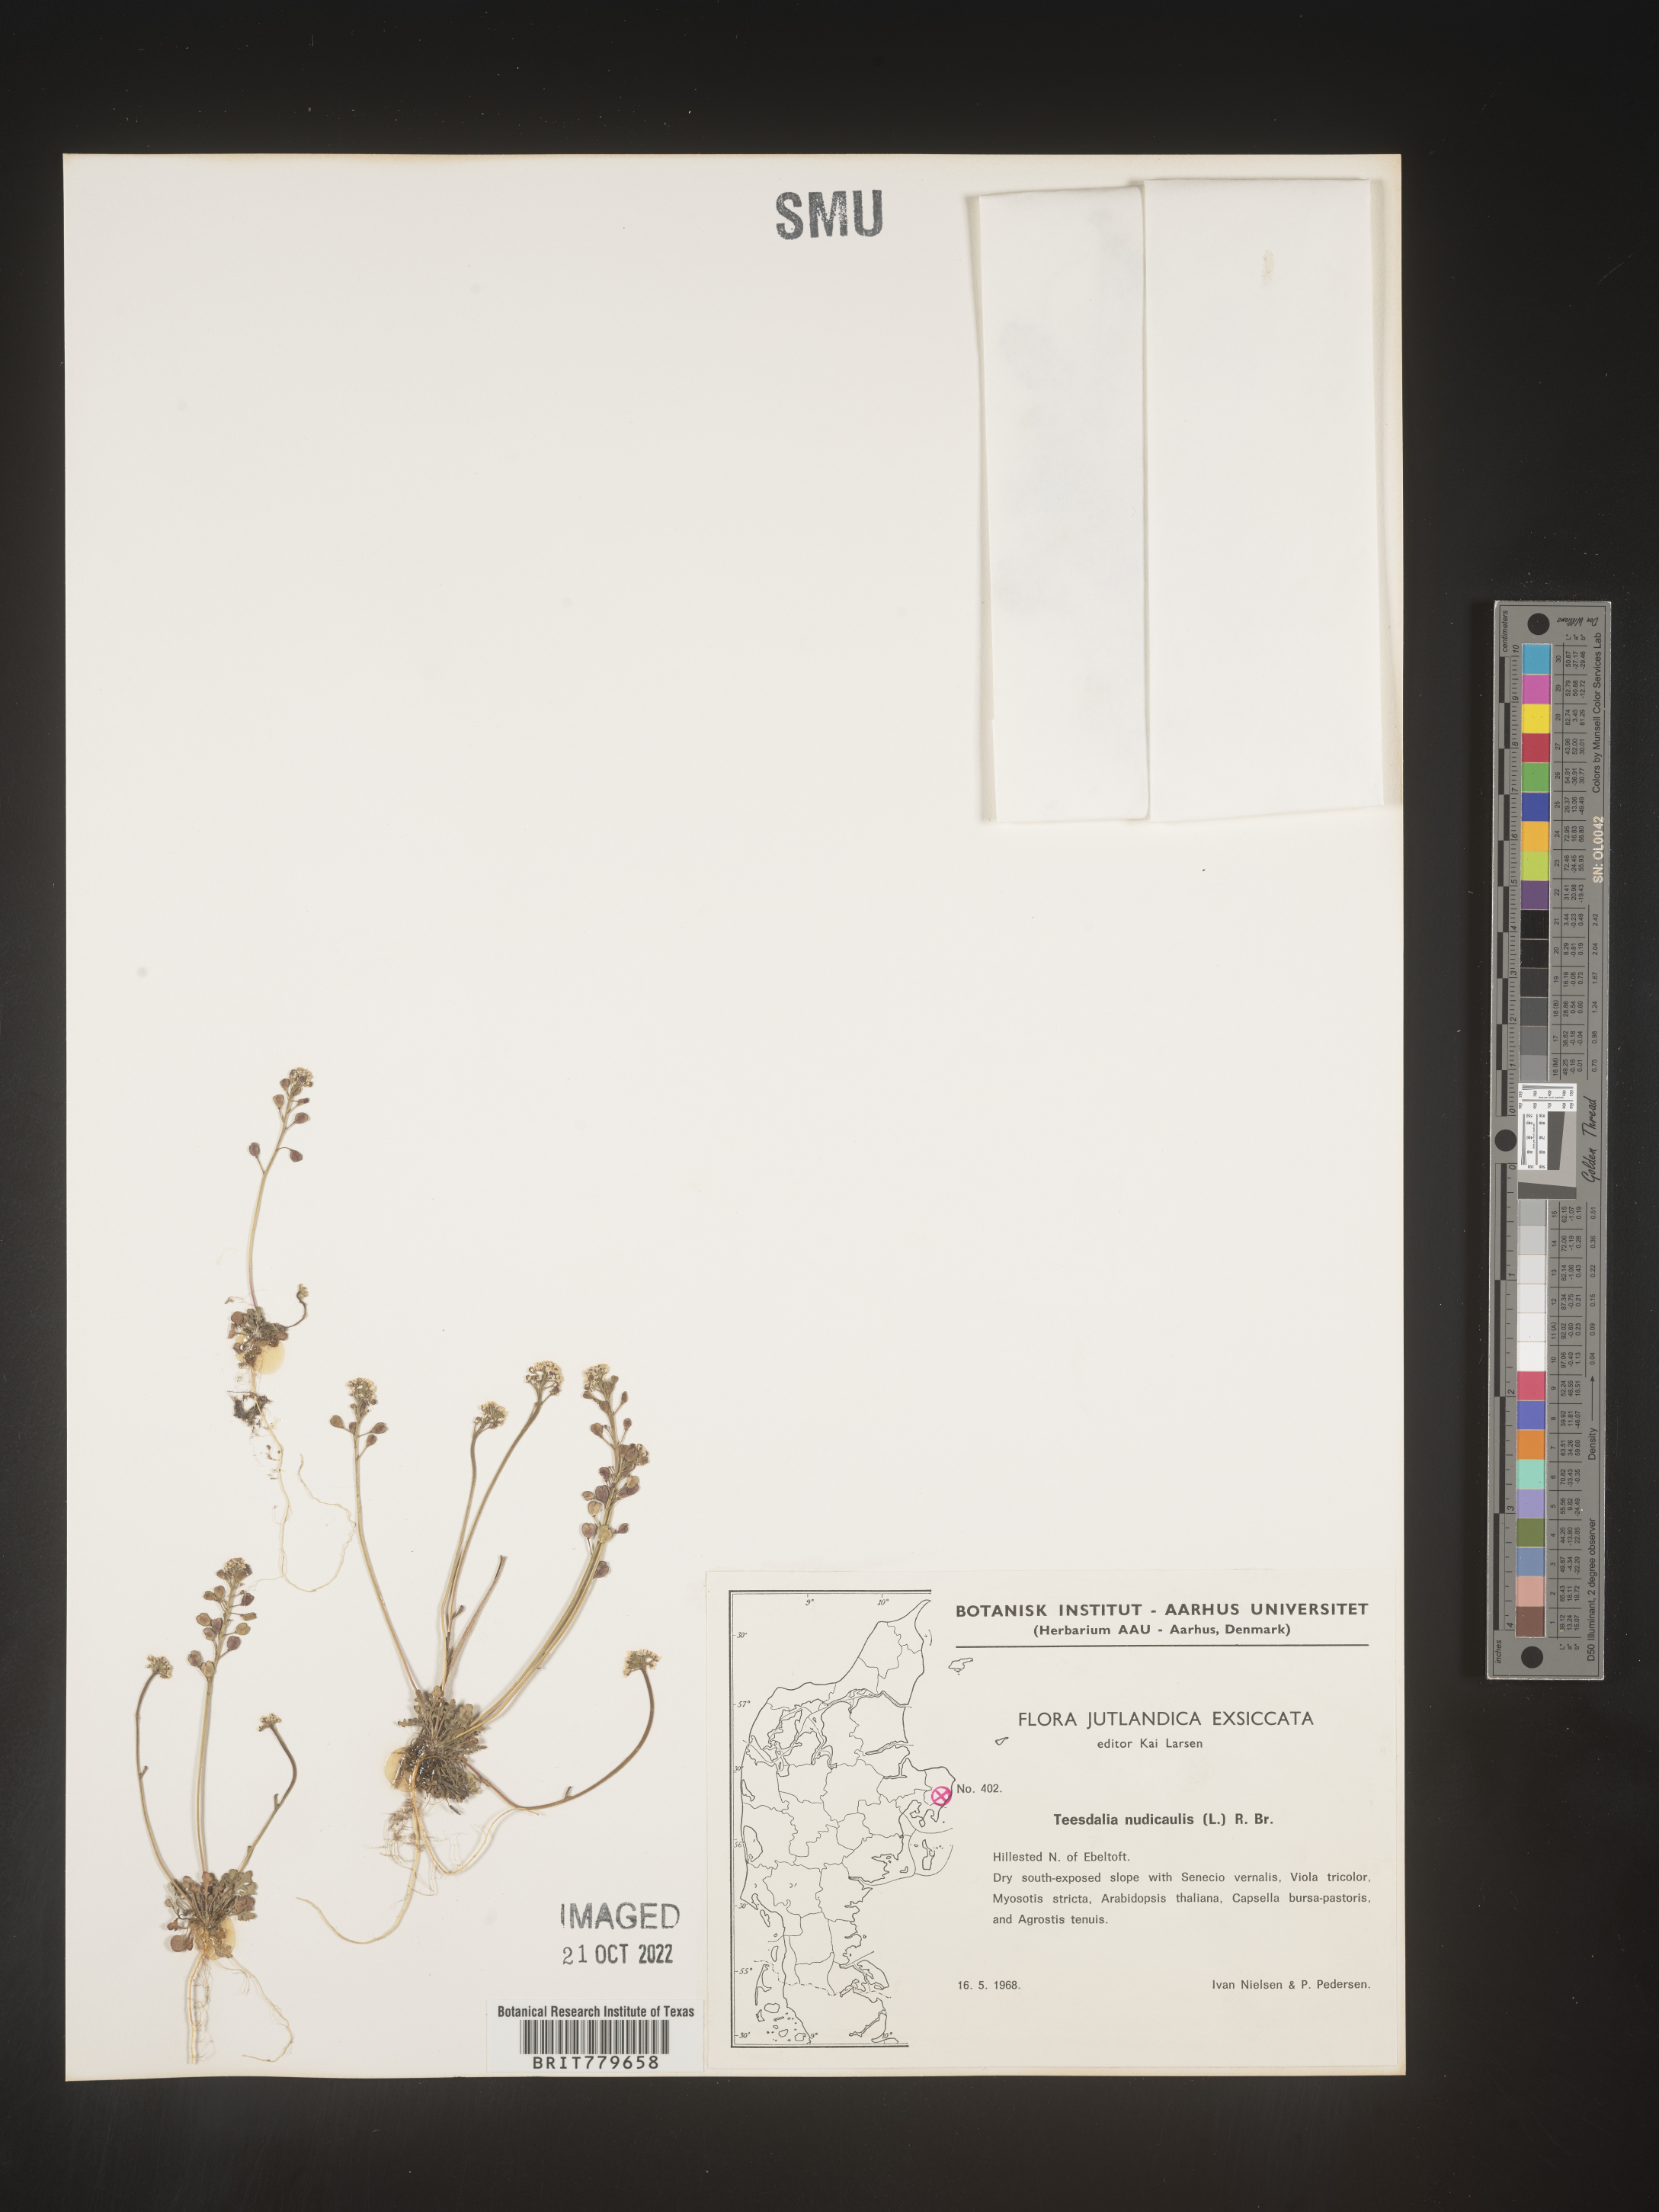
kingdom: Plantae
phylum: Tracheophyta
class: Magnoliopsida
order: Brassicales
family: Brassicaceae
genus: Teesdalia
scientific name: Teesdalia
